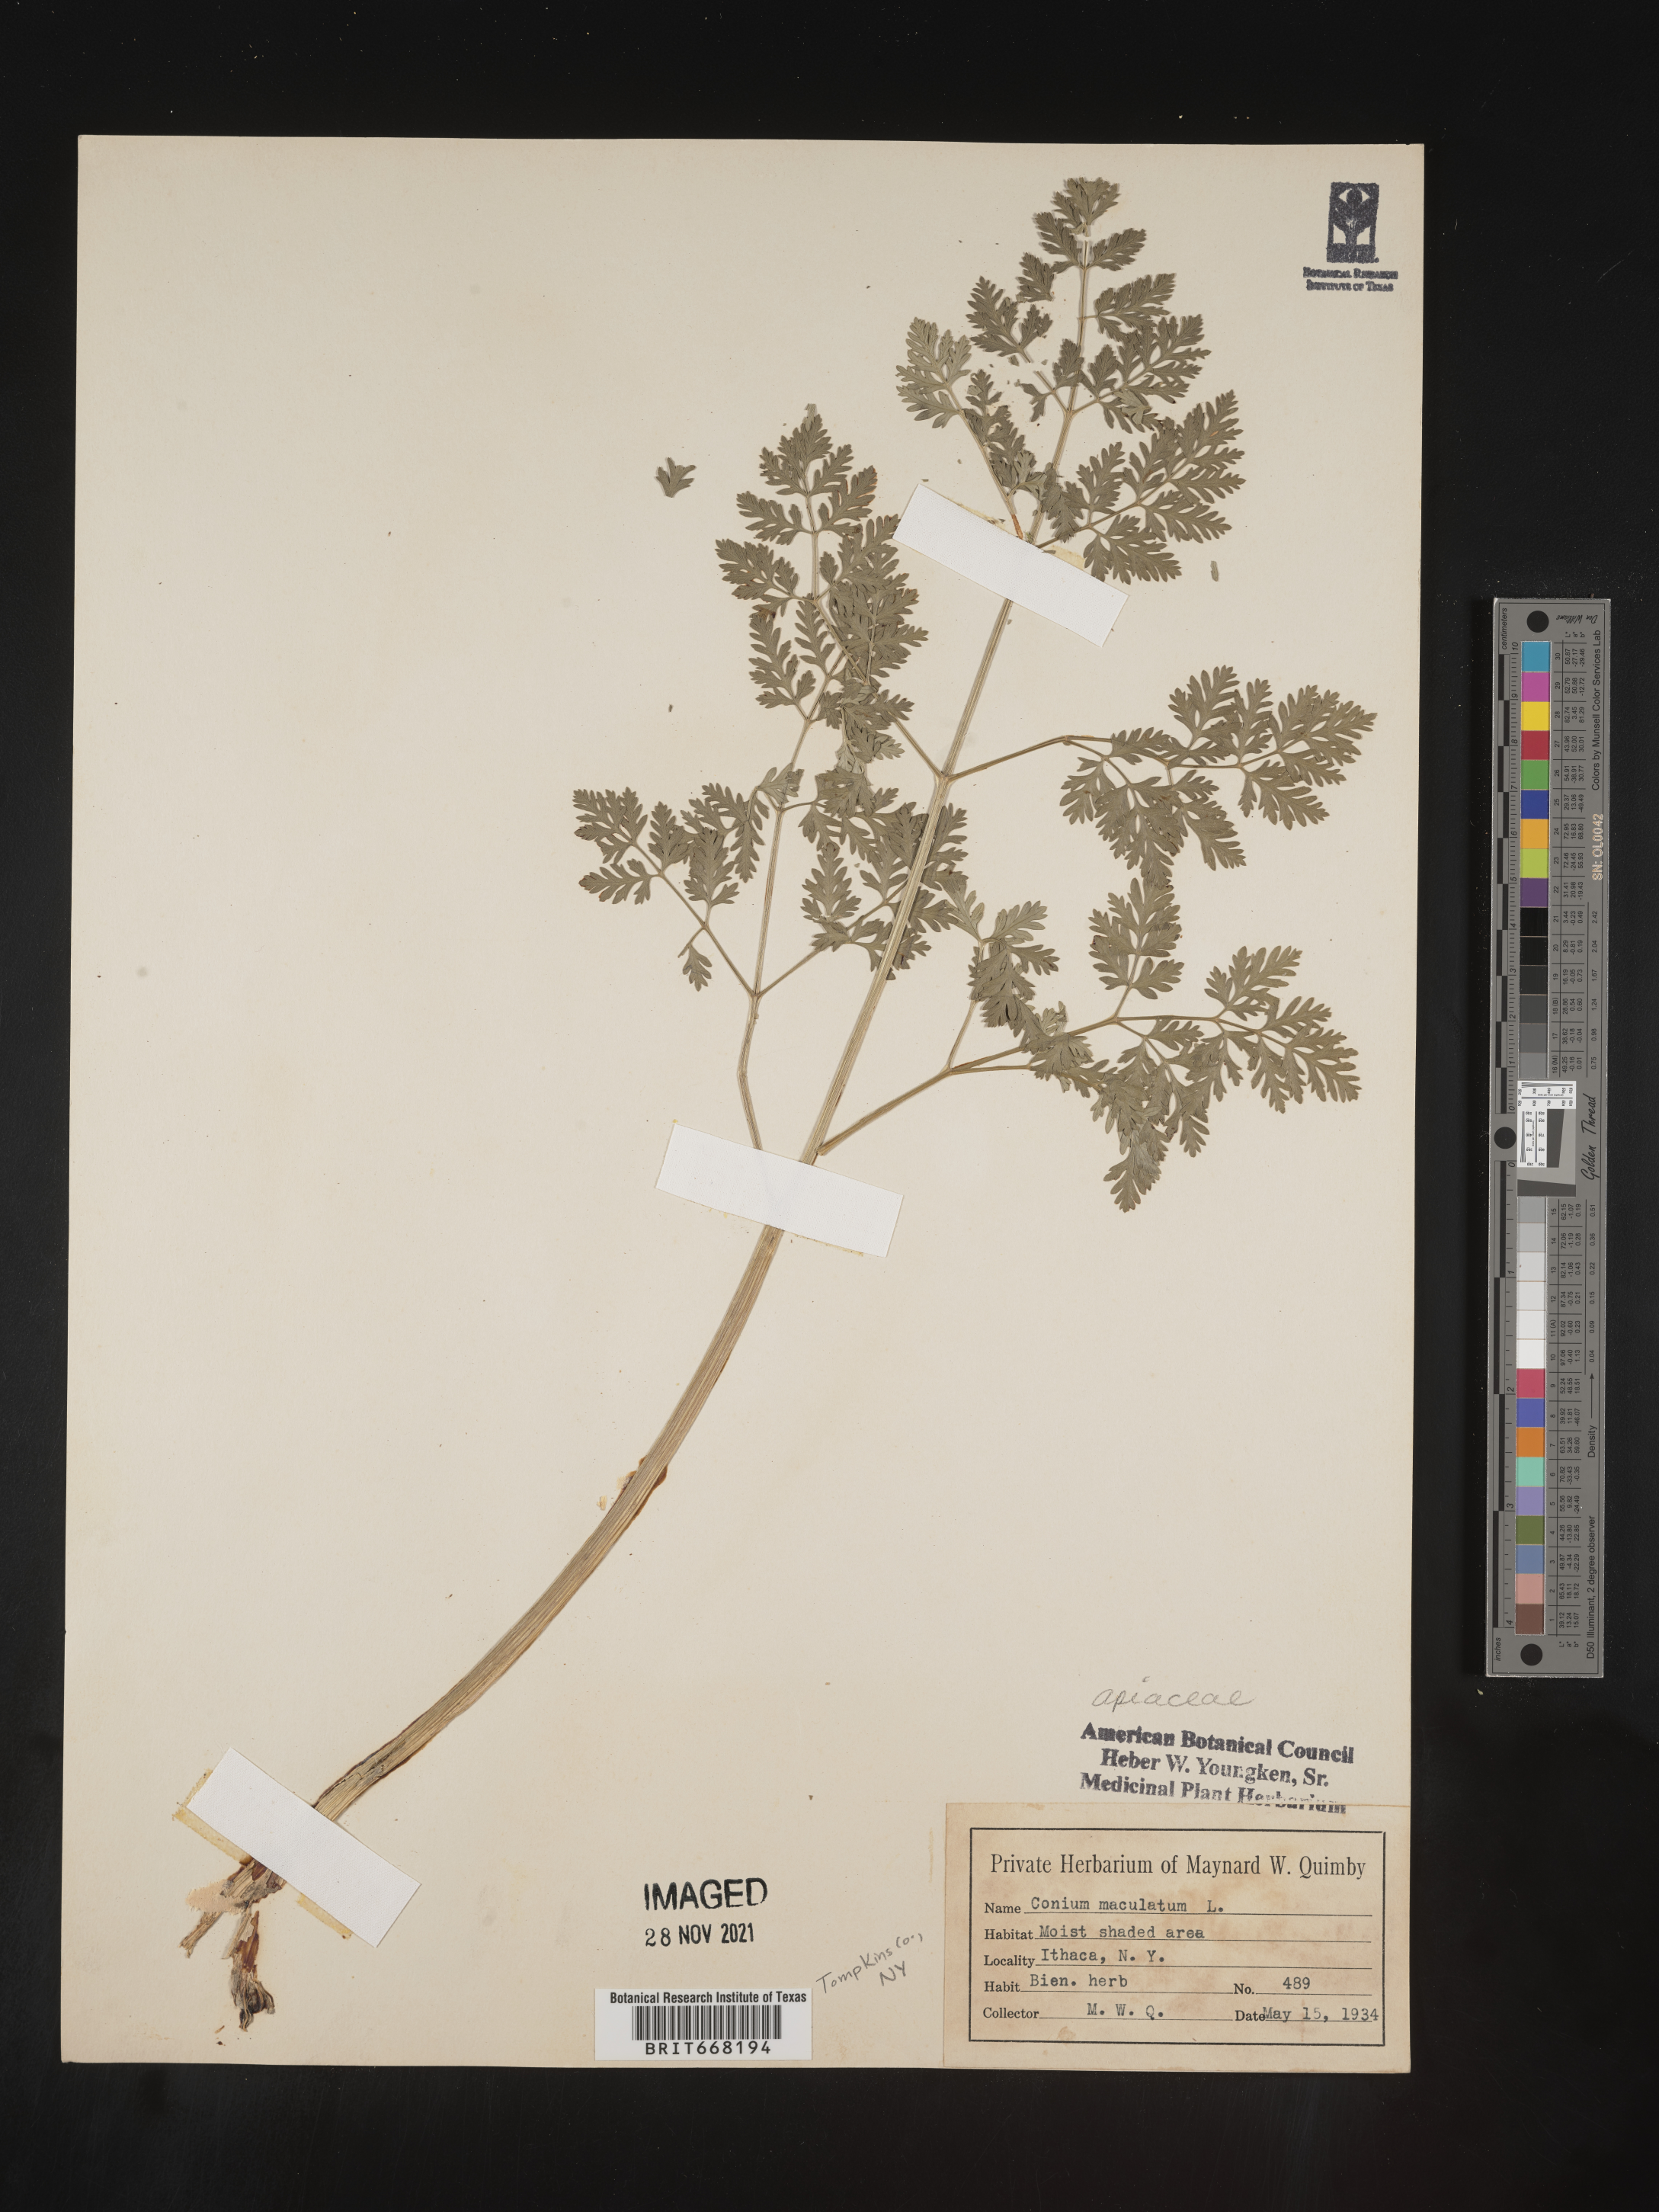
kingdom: Plantae
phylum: Tracheophyta
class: Magnoliopsida
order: Apiales
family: Apiaceae
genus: Conium
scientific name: Conium maculatum
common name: Hemlock
